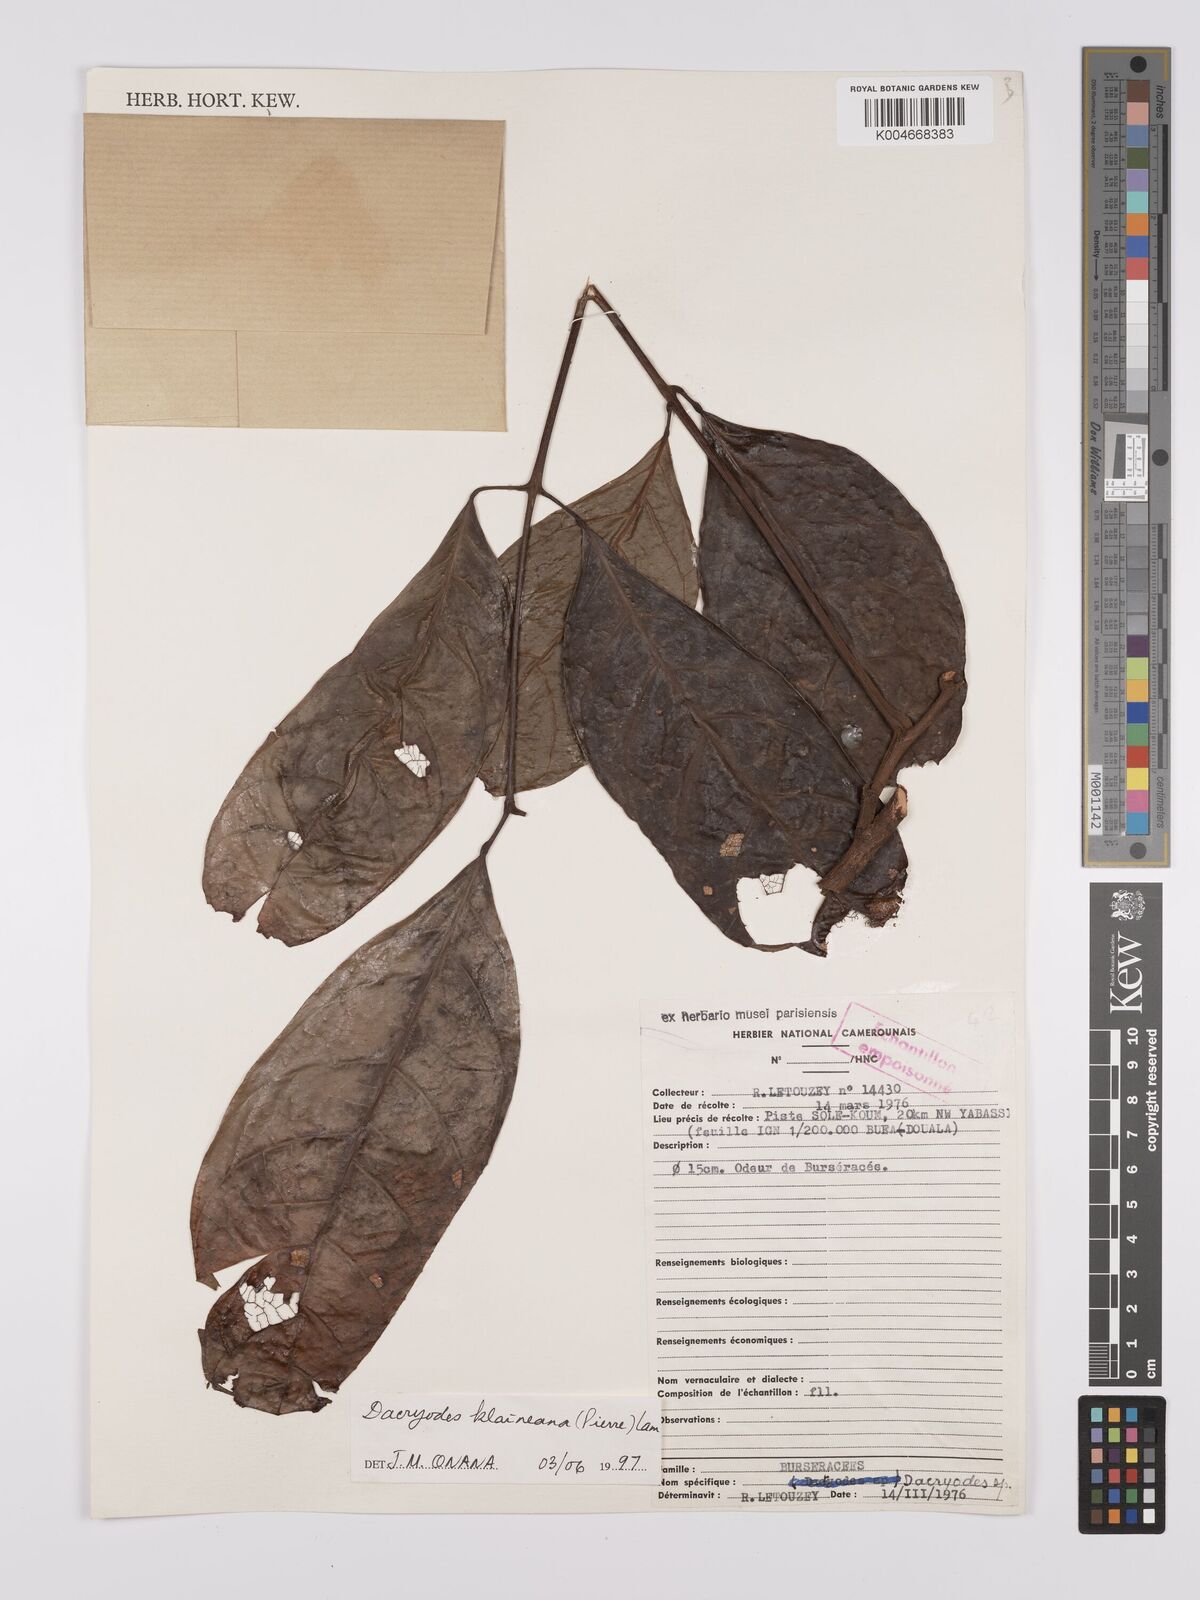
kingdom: Plantae
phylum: Tracheophyta
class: Magnoliopsida
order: Sapindales
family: Burseraceae
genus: Pachylobus
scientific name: Pachylobus klaineana
